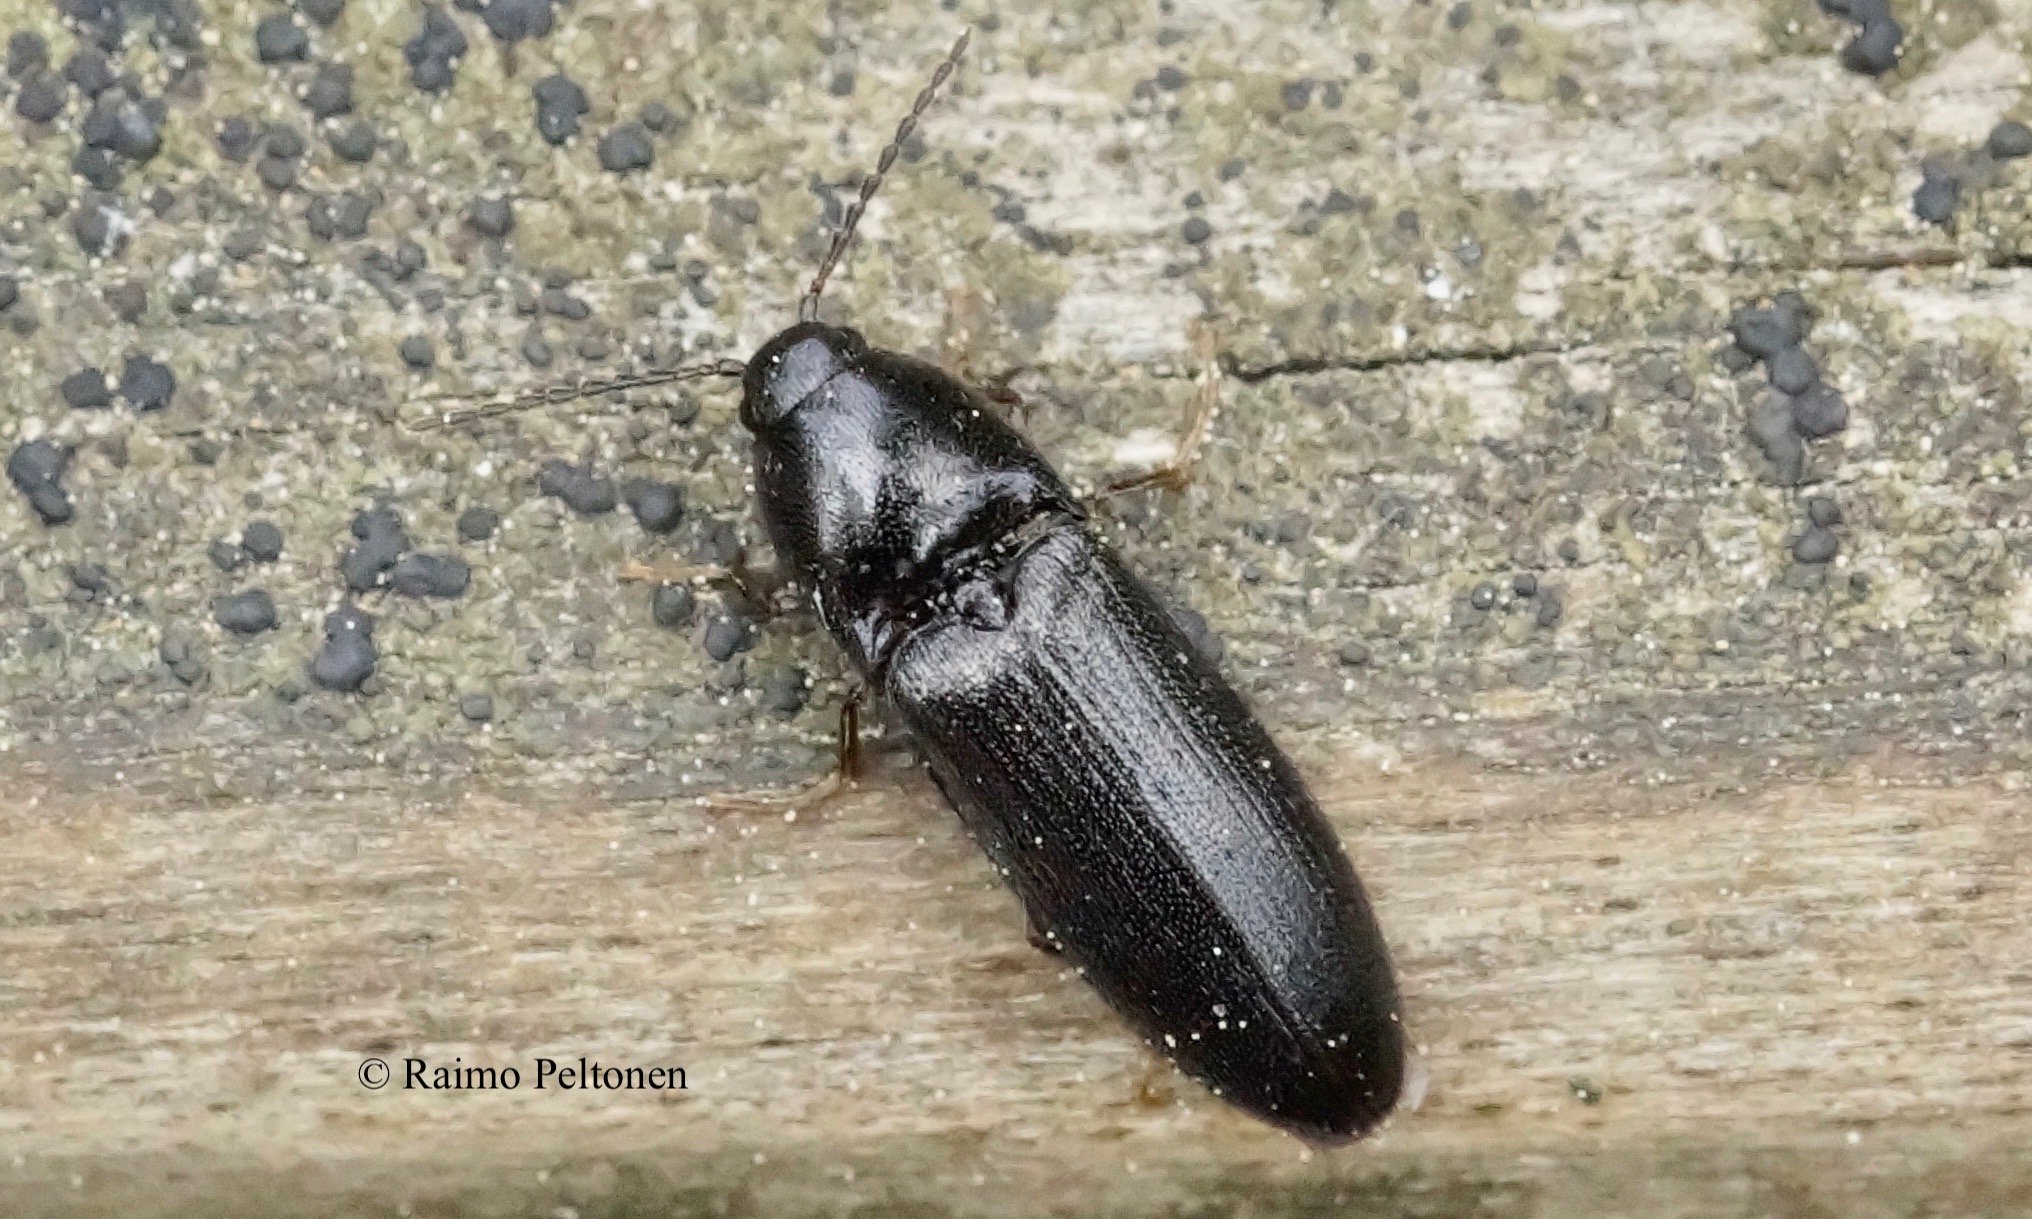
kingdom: Animalia
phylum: Arthropoda
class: Insecta
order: Coleoptera
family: Elateridae
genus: Ampedus
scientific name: Ampedus nigrinus
